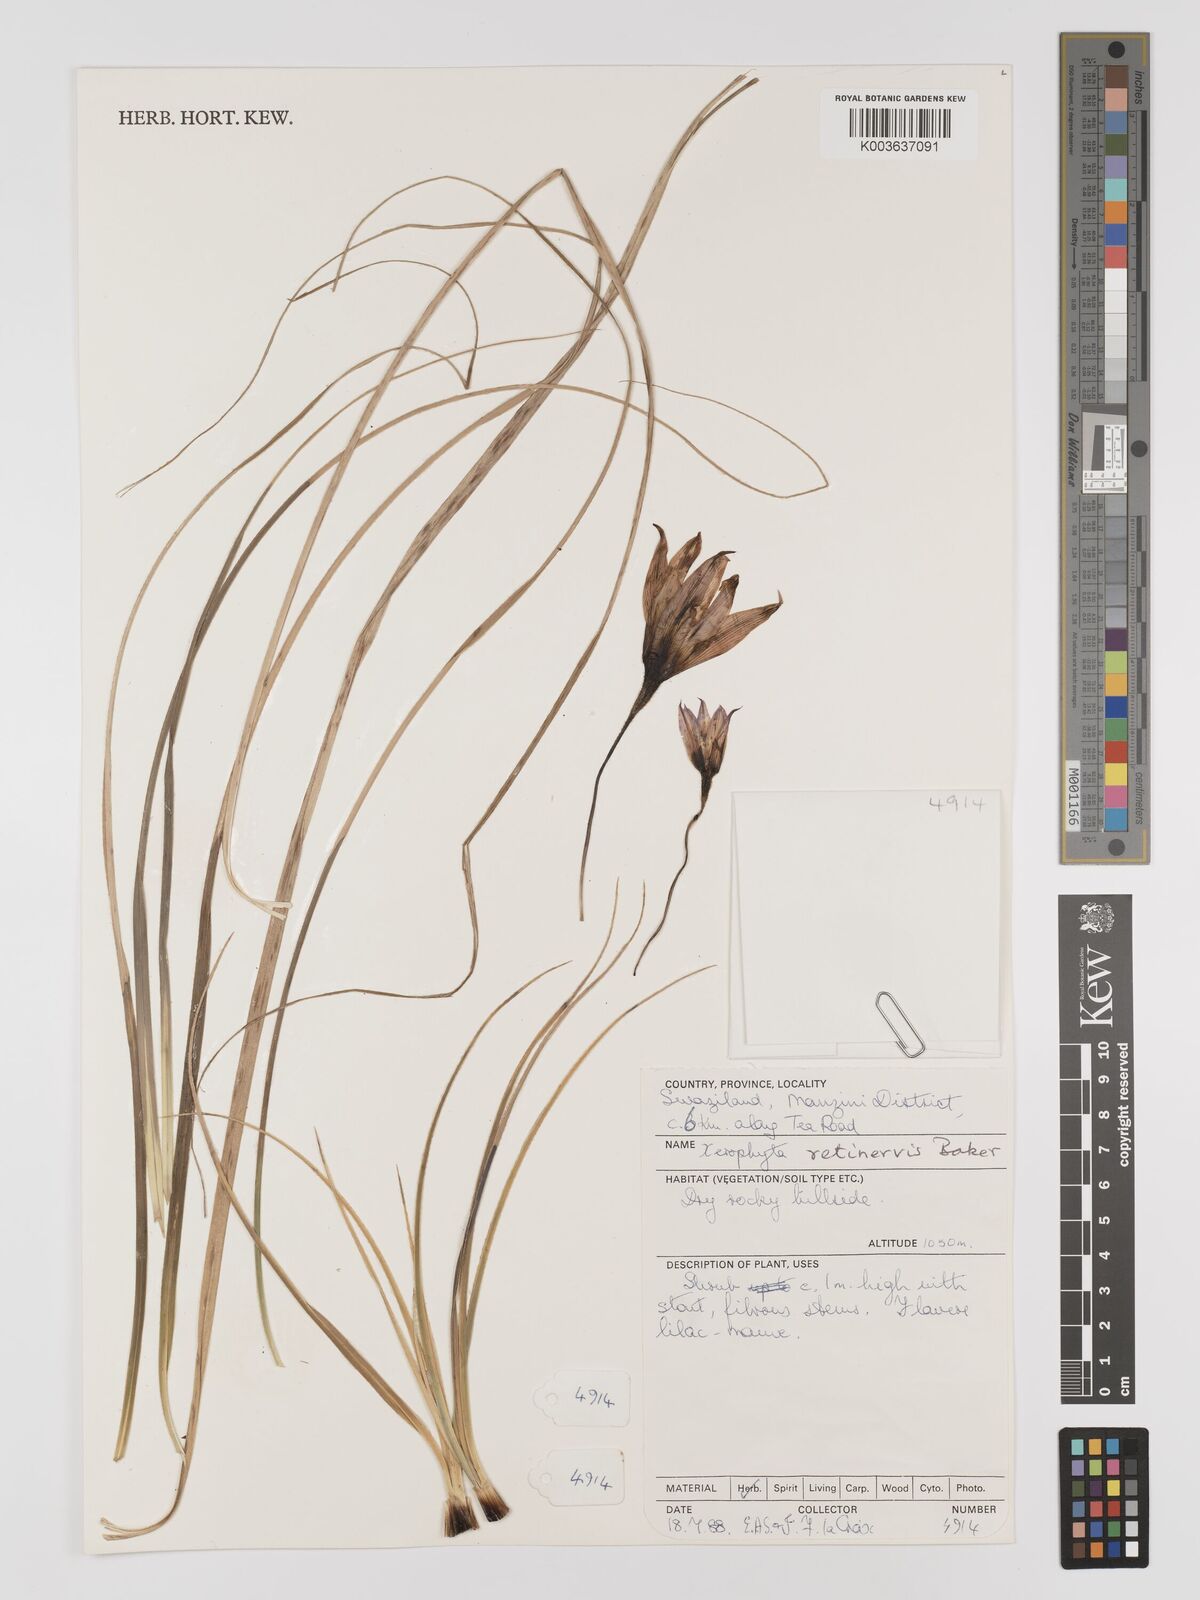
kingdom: Plantae
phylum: Tracheophyta
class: Liliopsida
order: Pandanales
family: Velloziaceae
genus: Xerophyta
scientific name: Xerophyta retinervis
